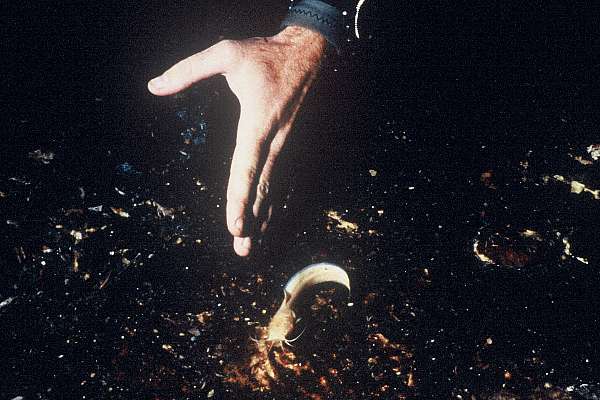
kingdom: Animalia
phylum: Chordata
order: Siluriformes
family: Clariidae
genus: Clarias
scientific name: Clarias cavernicola
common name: Cave catfish
